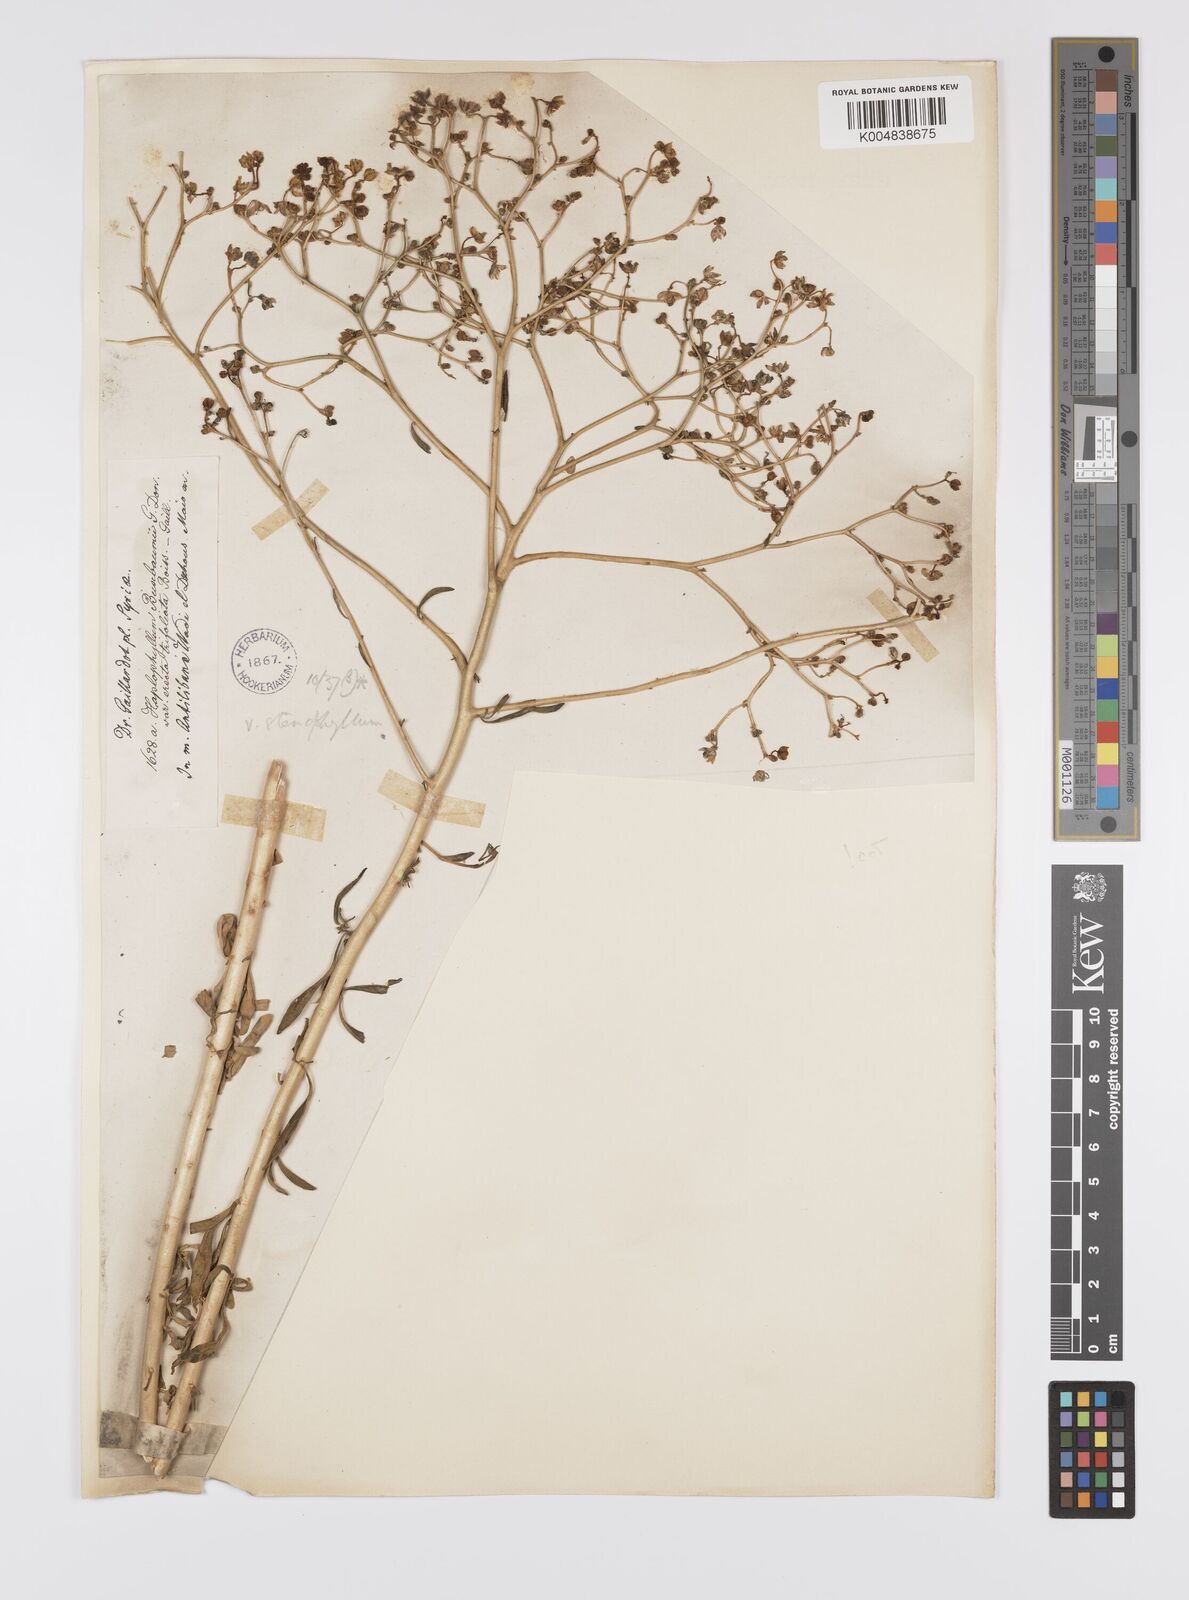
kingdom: Plantae
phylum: Tracheophyta
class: Magnoliopsida
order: Sapindales
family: Rutaceae
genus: Haplophyllum
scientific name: Haplophyllum
